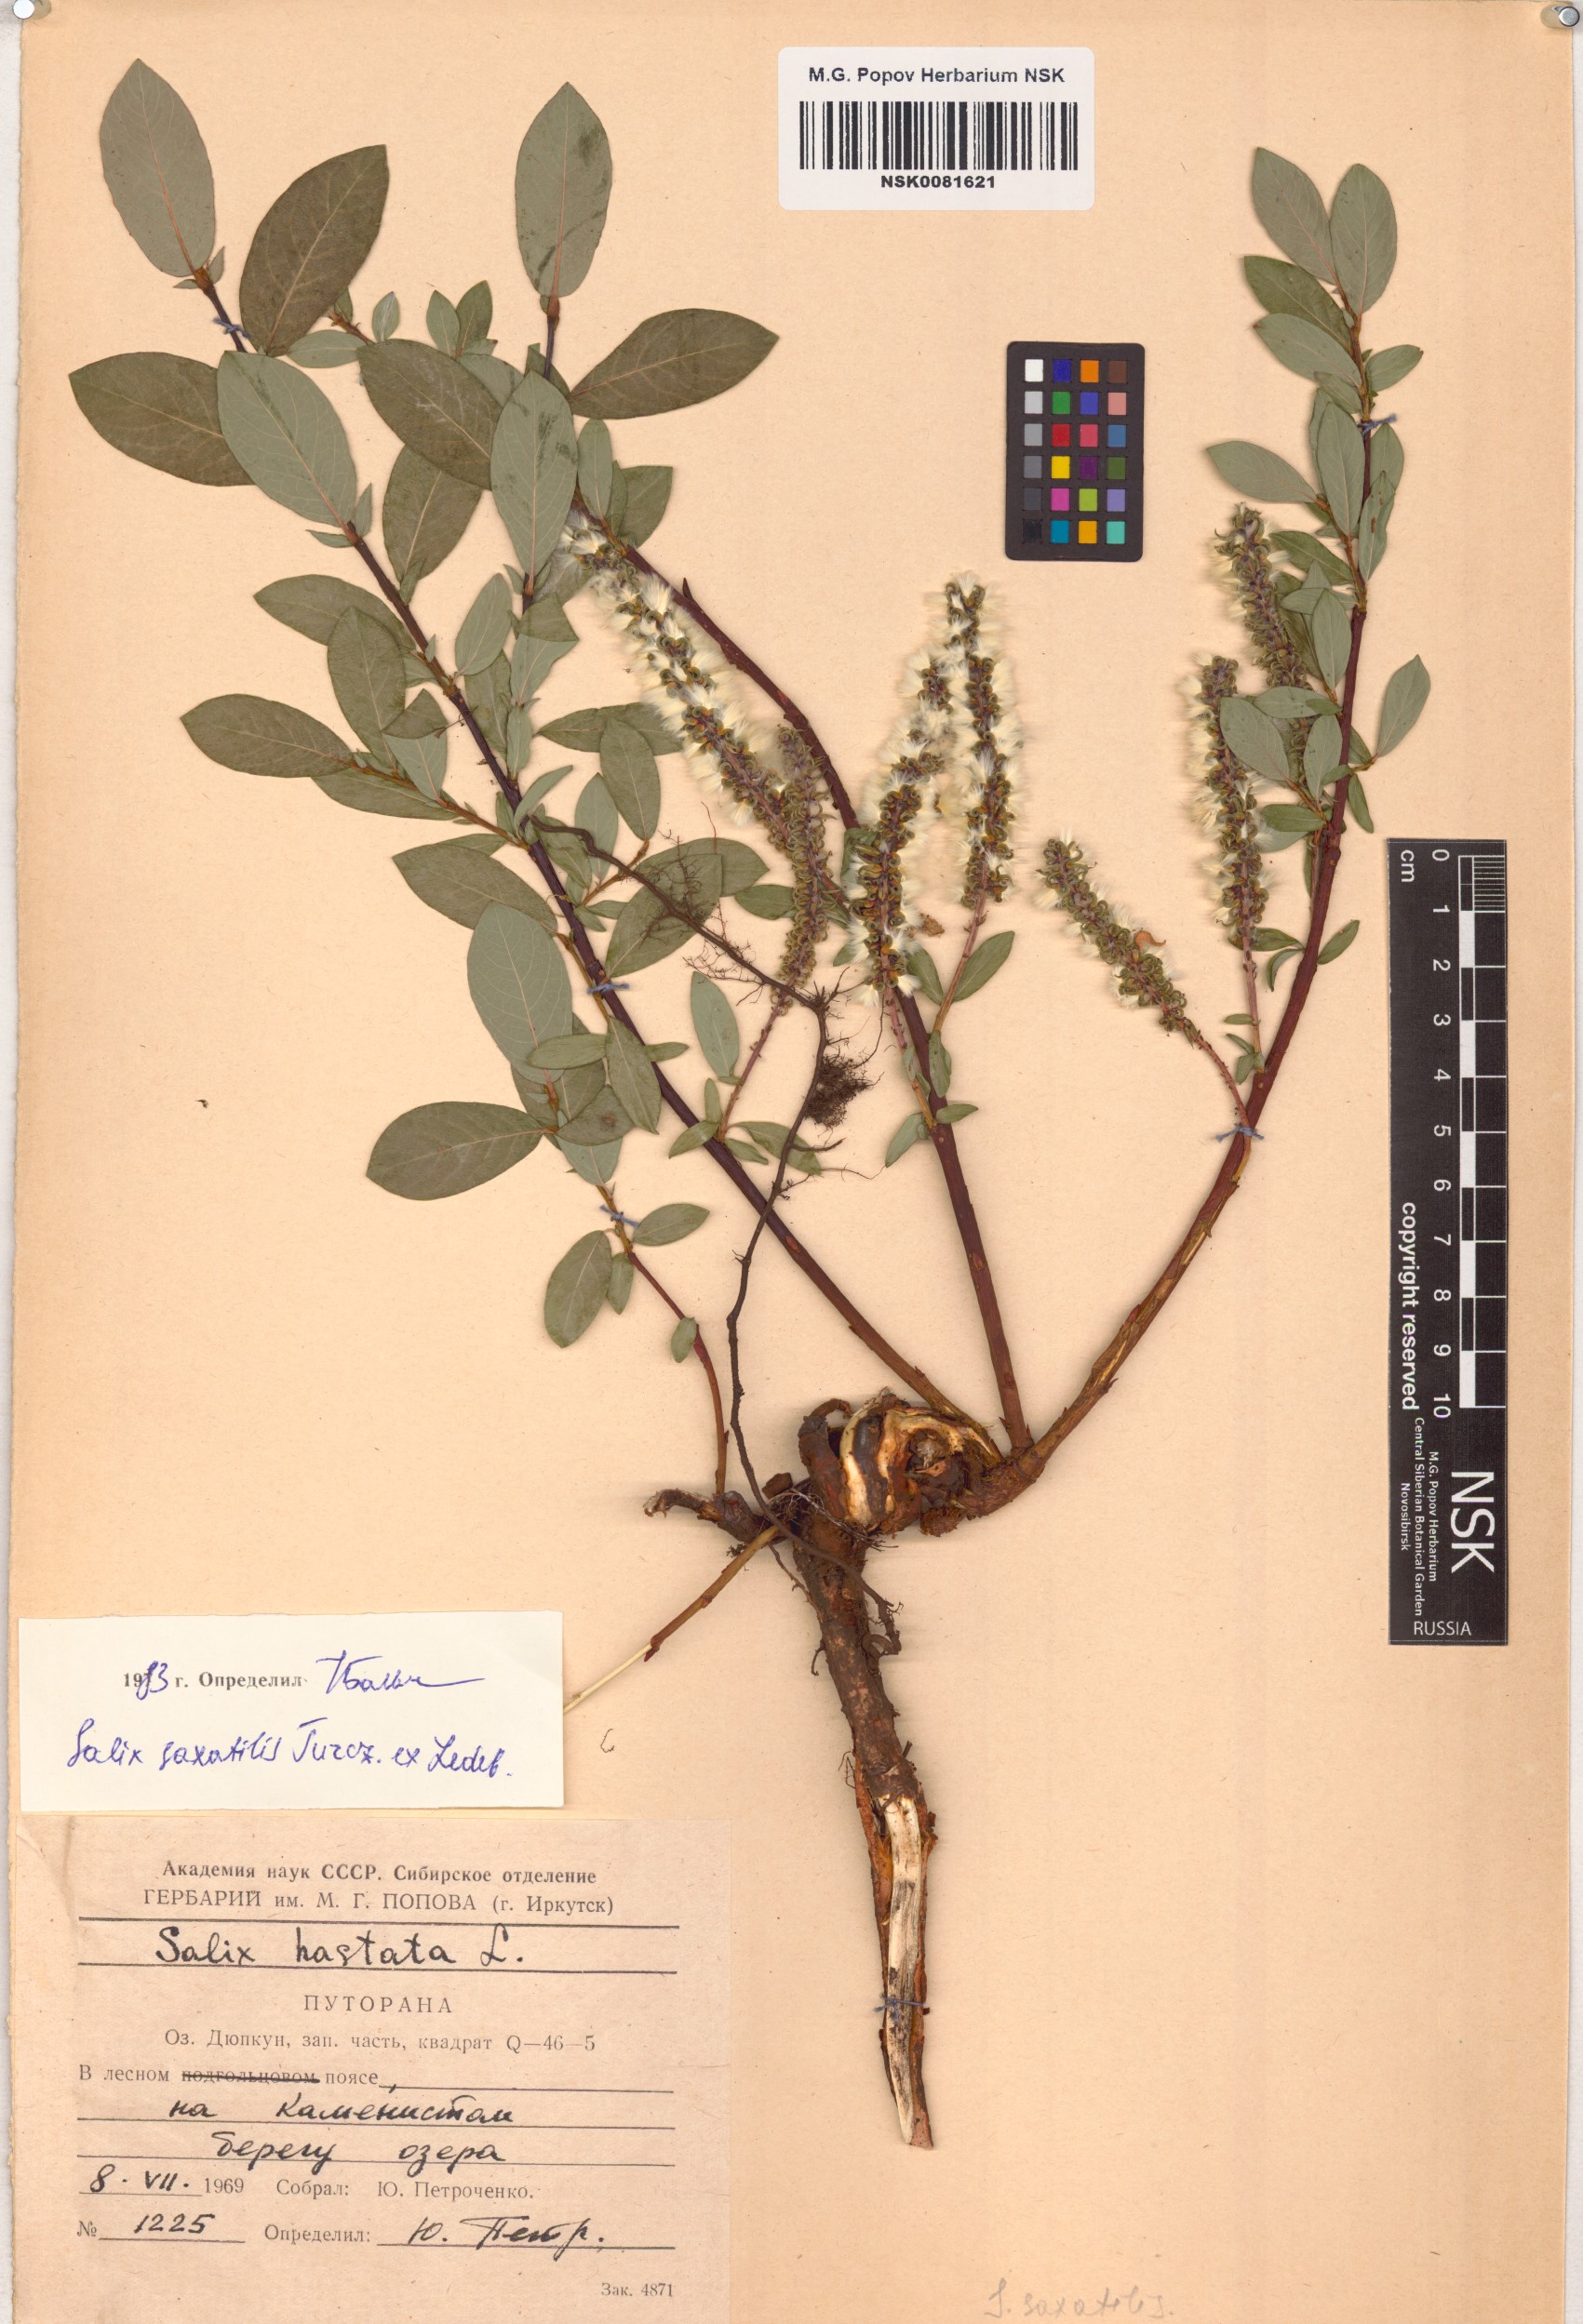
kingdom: Plantae
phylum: Tracheophyta
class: Magnoliopsida
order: Malpighiales
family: Salicaceae
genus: Salix
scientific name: Salix saxatilis
